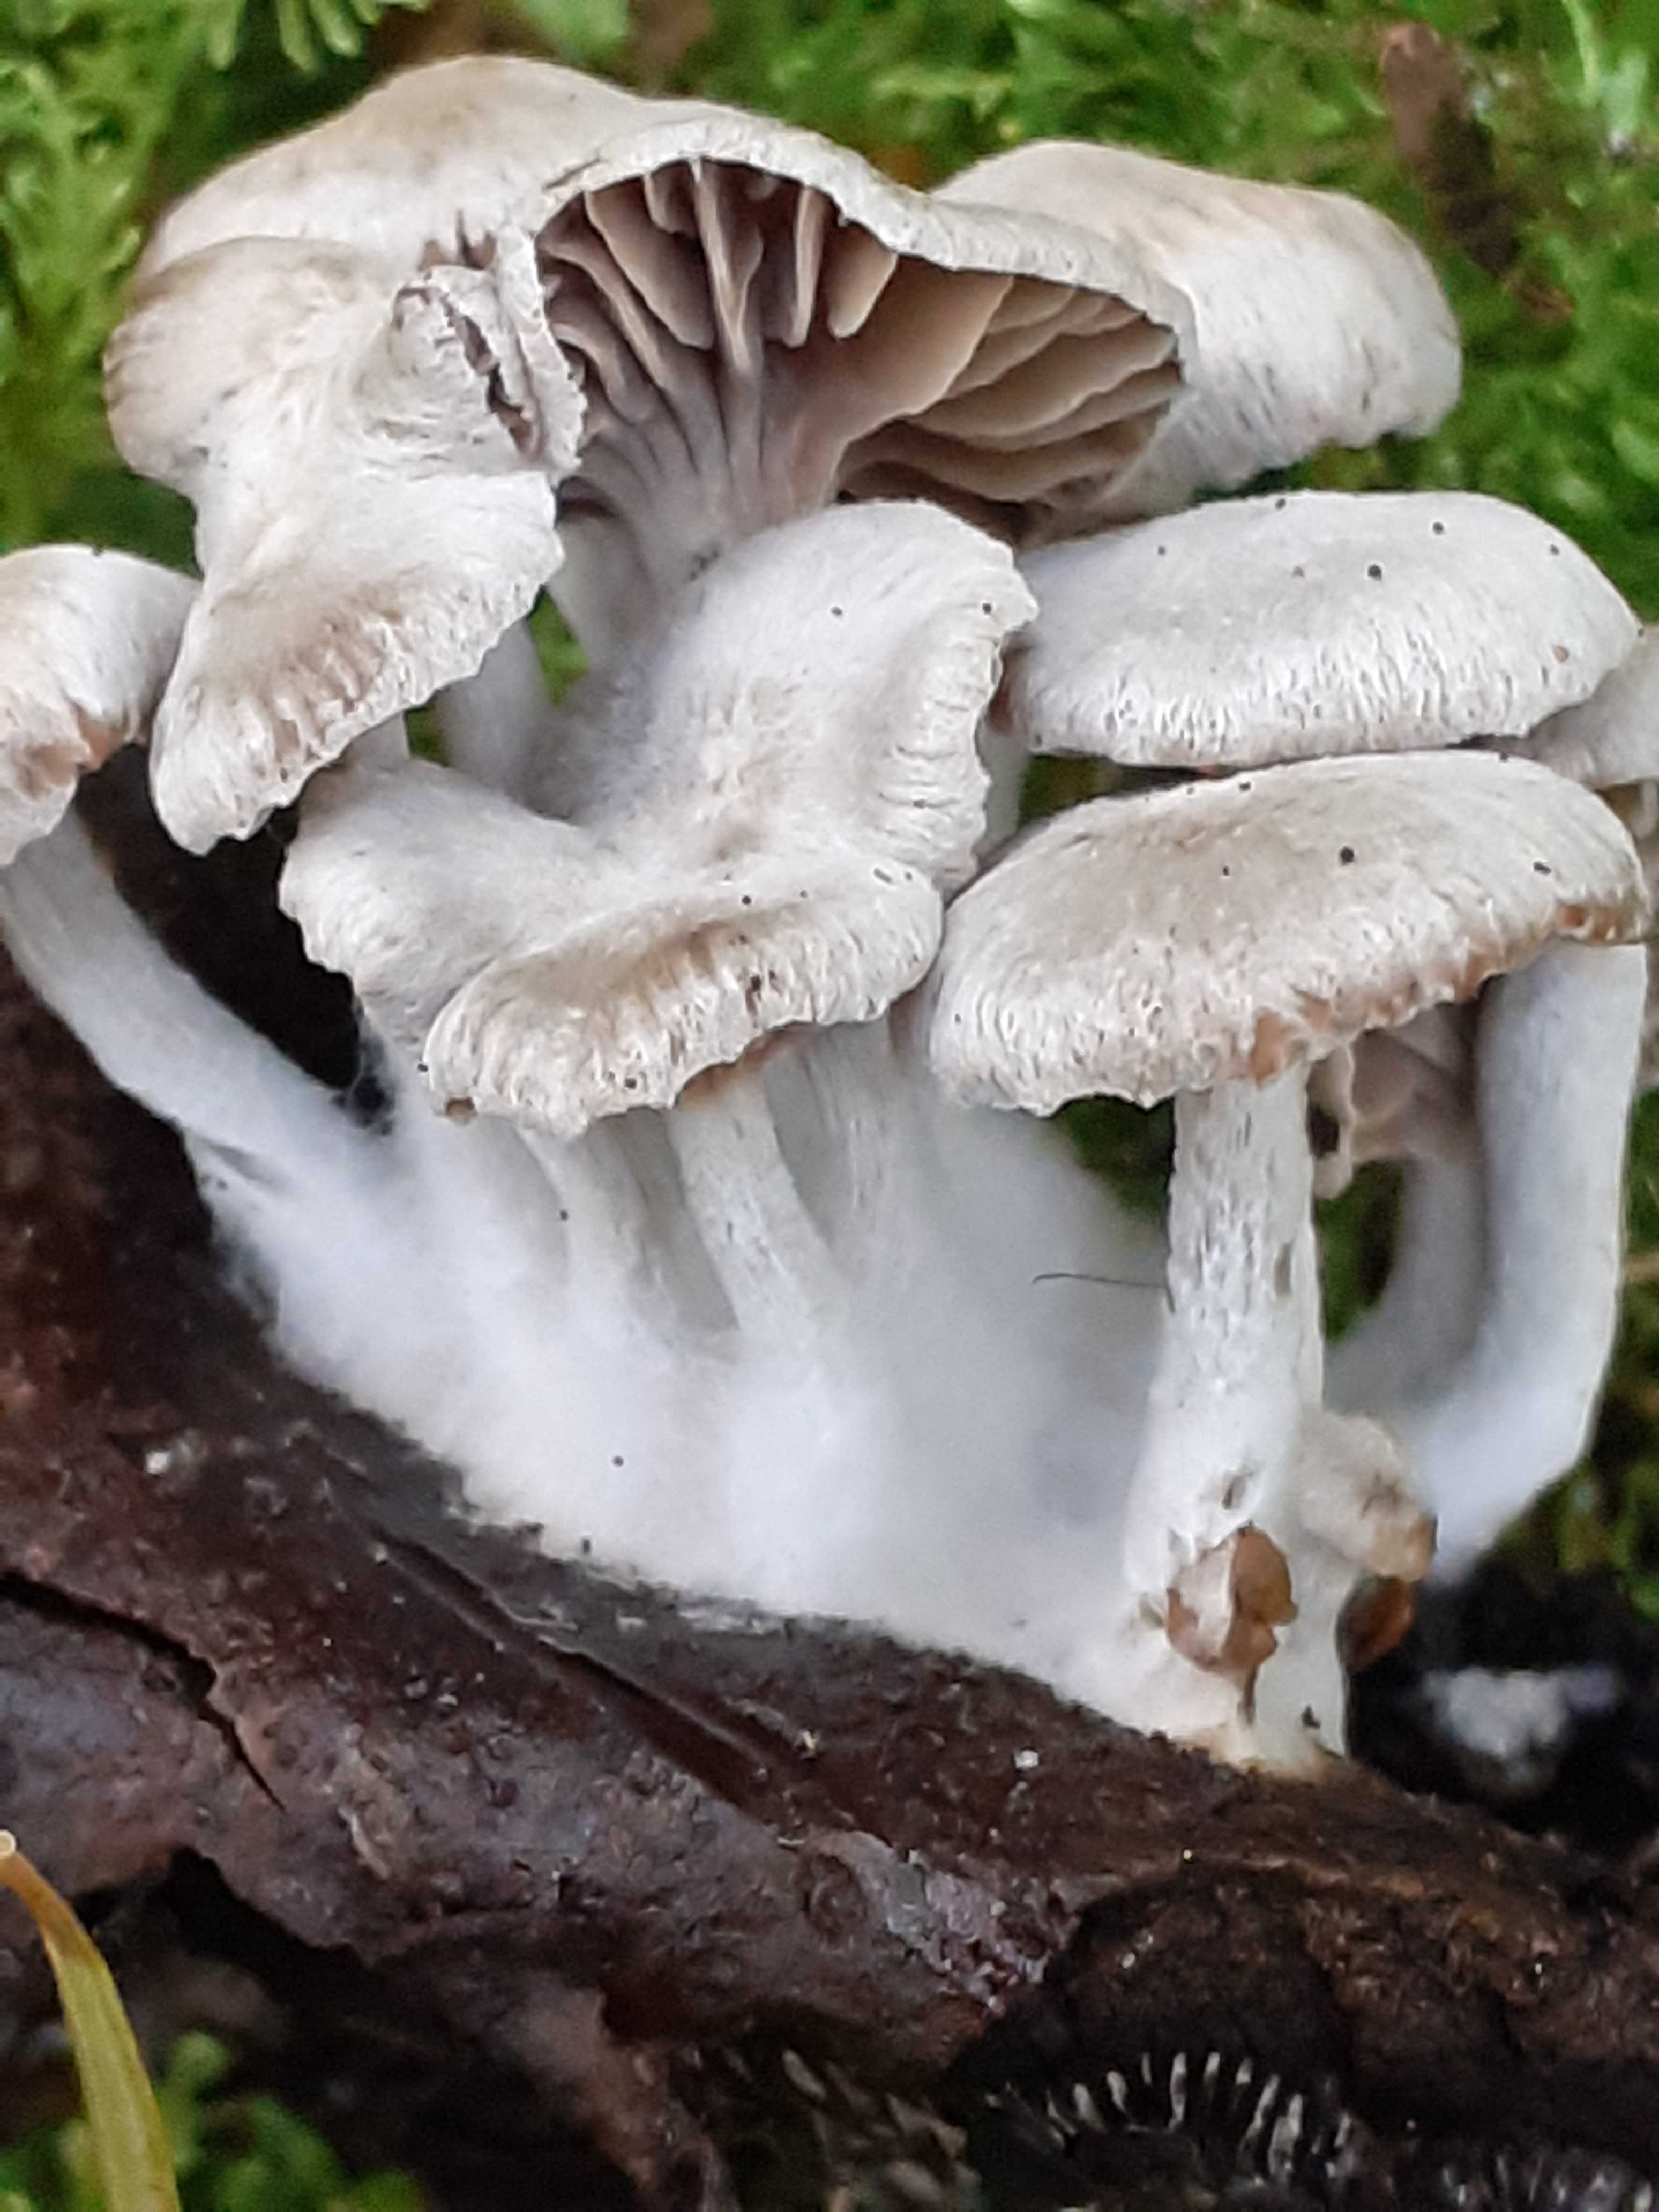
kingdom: Fungi
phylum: Basidiomycota
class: Agaricomycetes
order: Agaricales
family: Lyophyllaceae
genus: Asterophora
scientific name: Asterophora parasitica
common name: grå snyltehat
